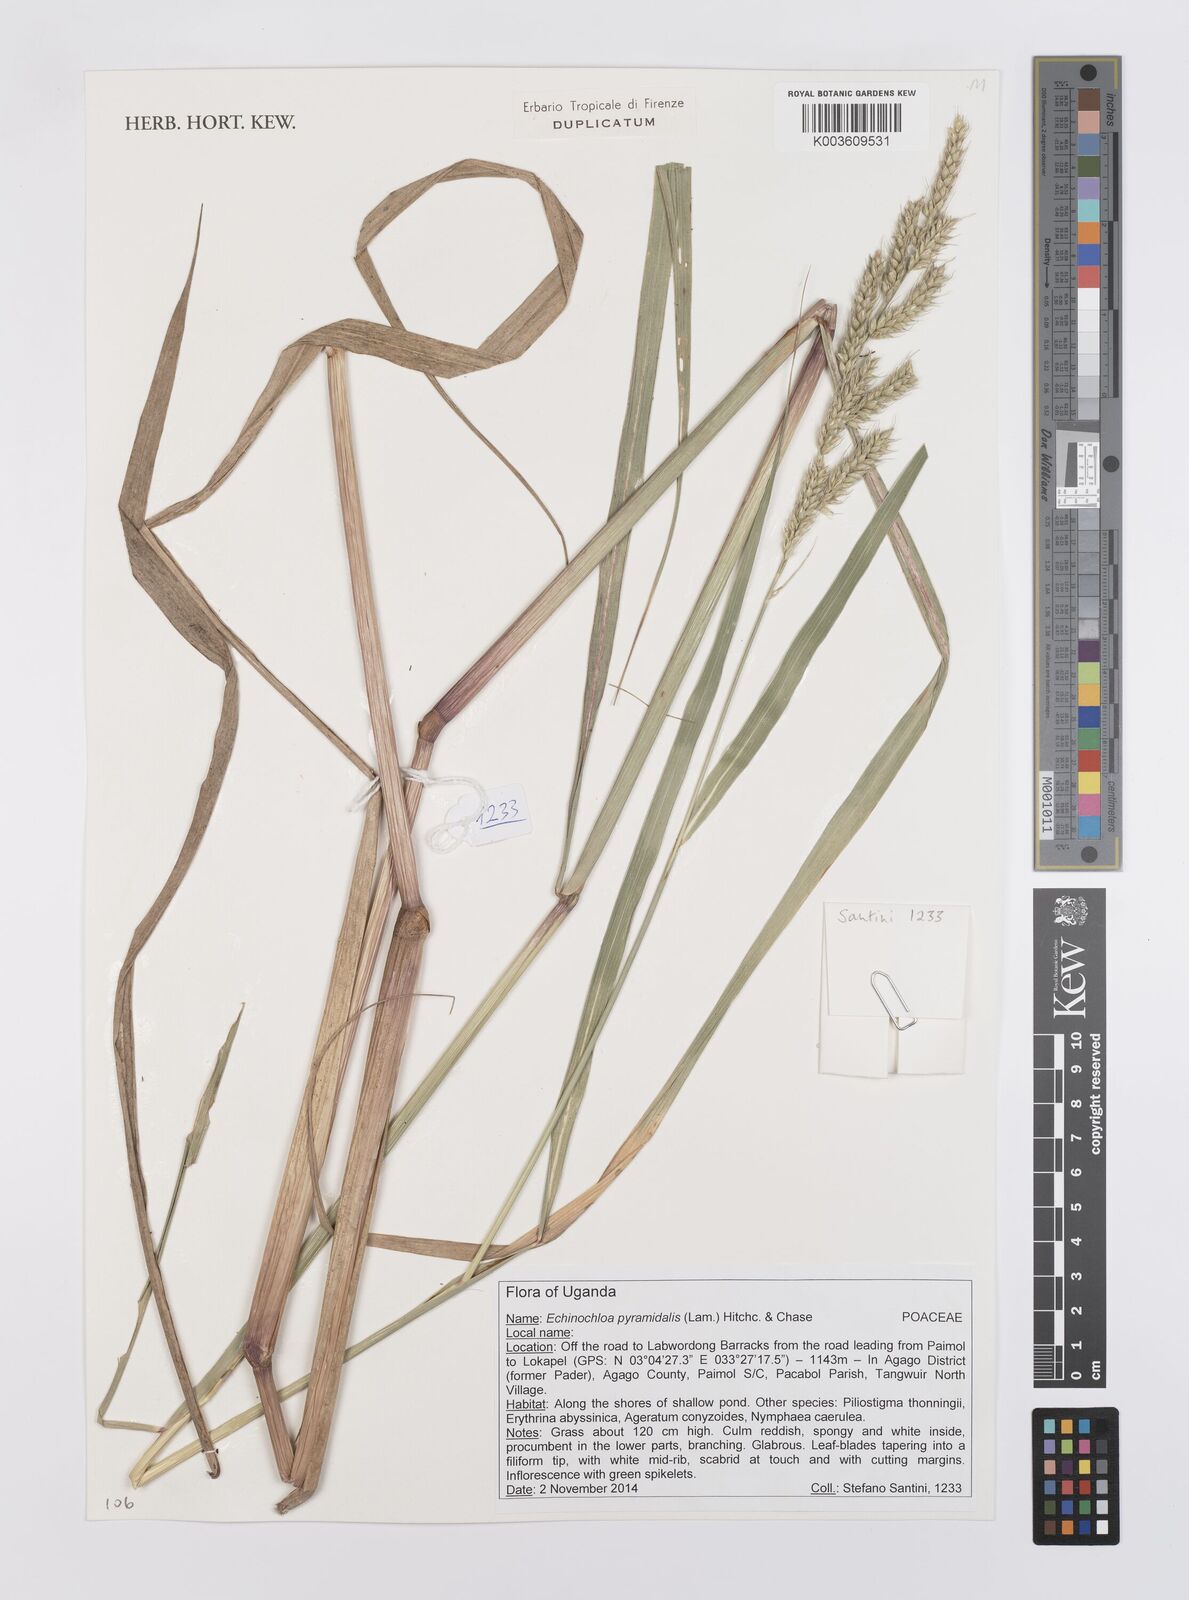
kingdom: Plantae
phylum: Tracheophyta
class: Liliopsida
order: Poales
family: Poaceae
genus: Echinochloa
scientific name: Echinochloa pyramidalis
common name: Antelope grass
